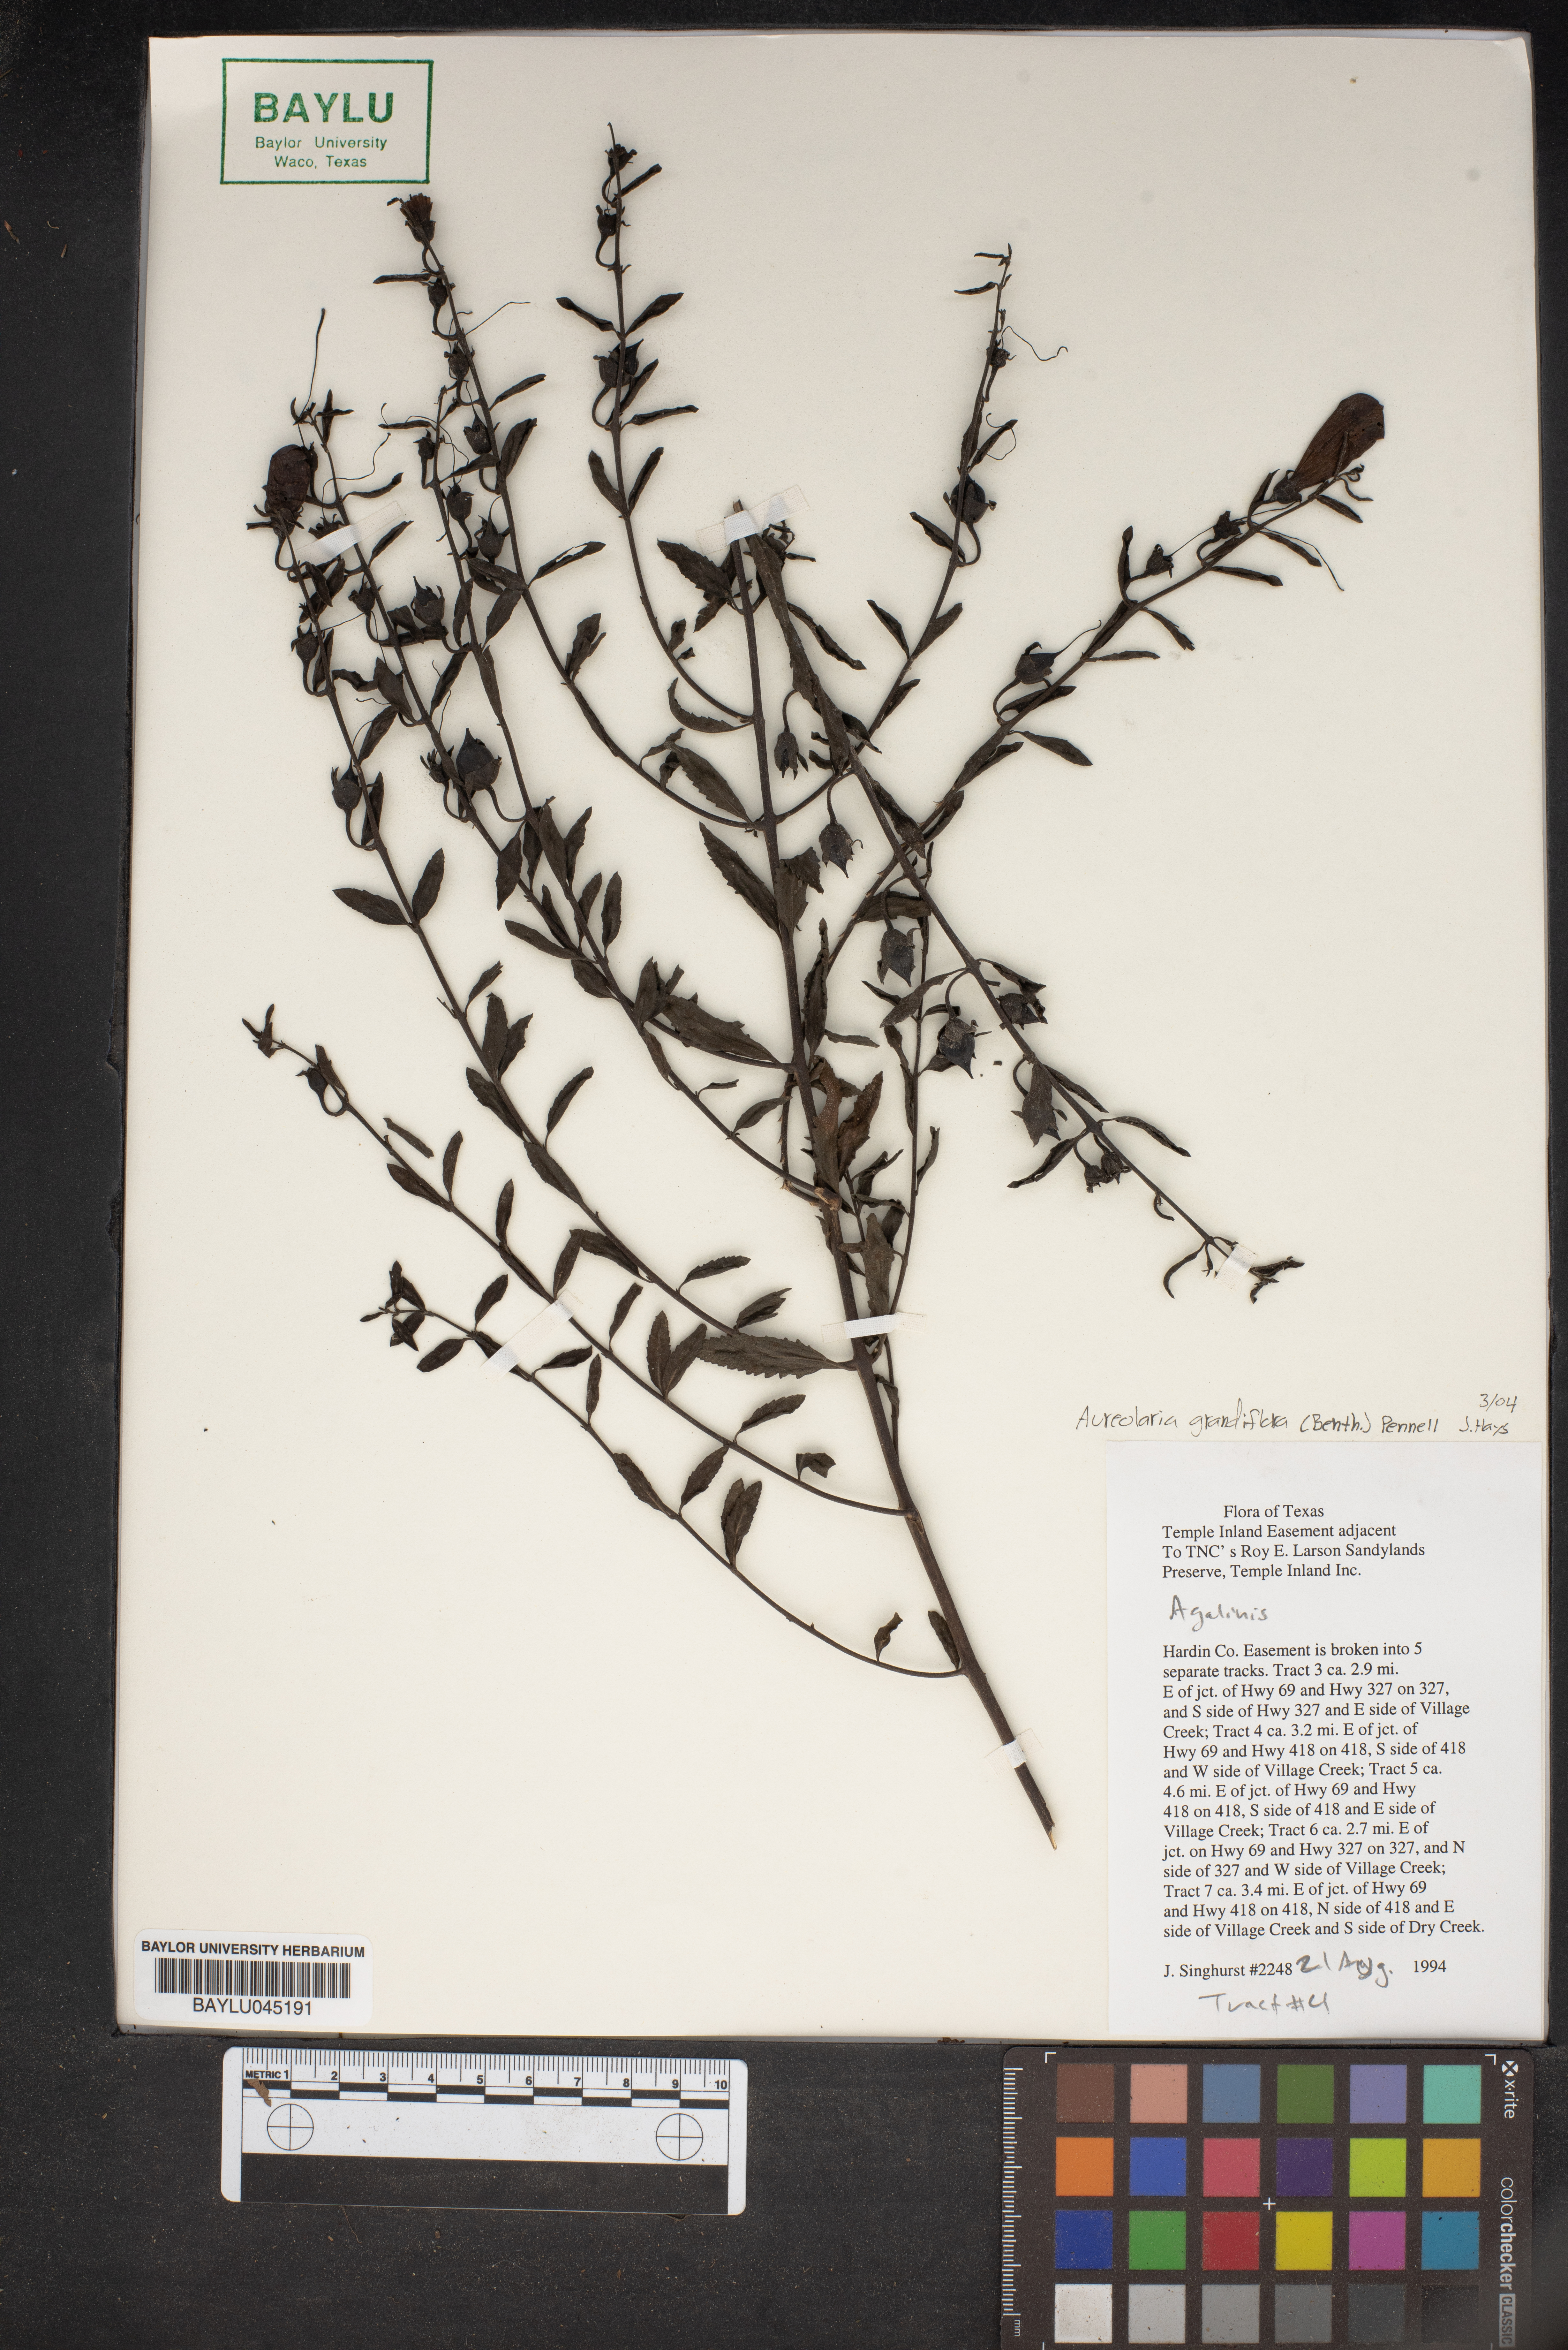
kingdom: Plantae
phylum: Tracheophyta
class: Magnoliopsida
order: Lamiales
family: Orobanchaceae
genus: Aureolaria
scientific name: Aureolaria grandiflora
